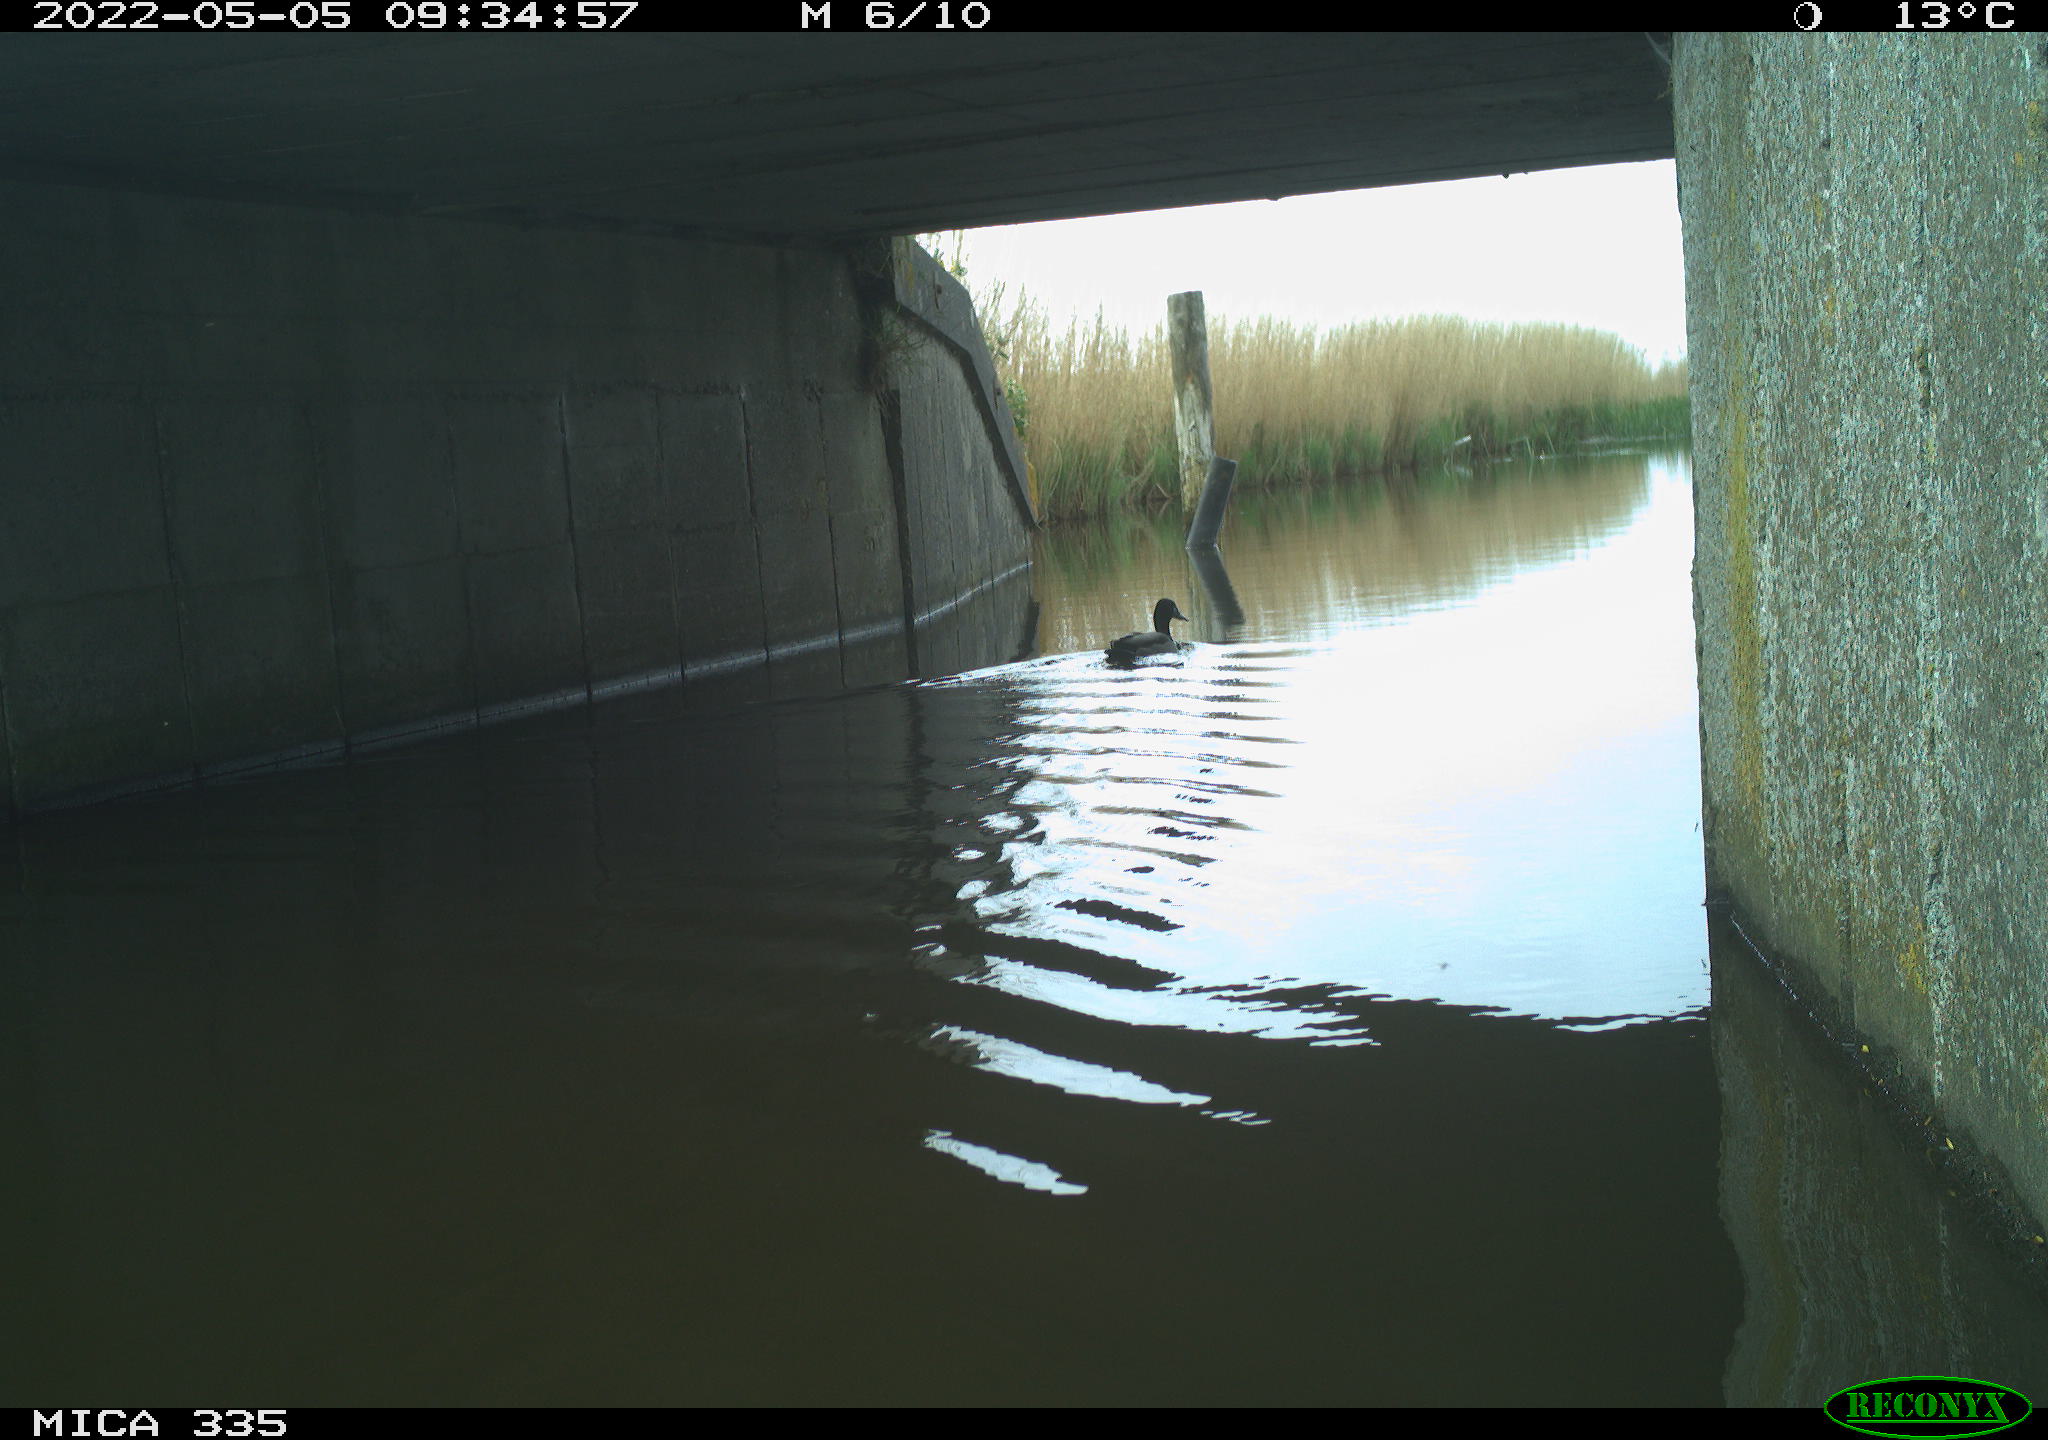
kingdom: Animalia
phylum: Chordata
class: Aves
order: Anseriformes
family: Anatidae
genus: Anas
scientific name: Anas platyrhynchos
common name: Mallard
